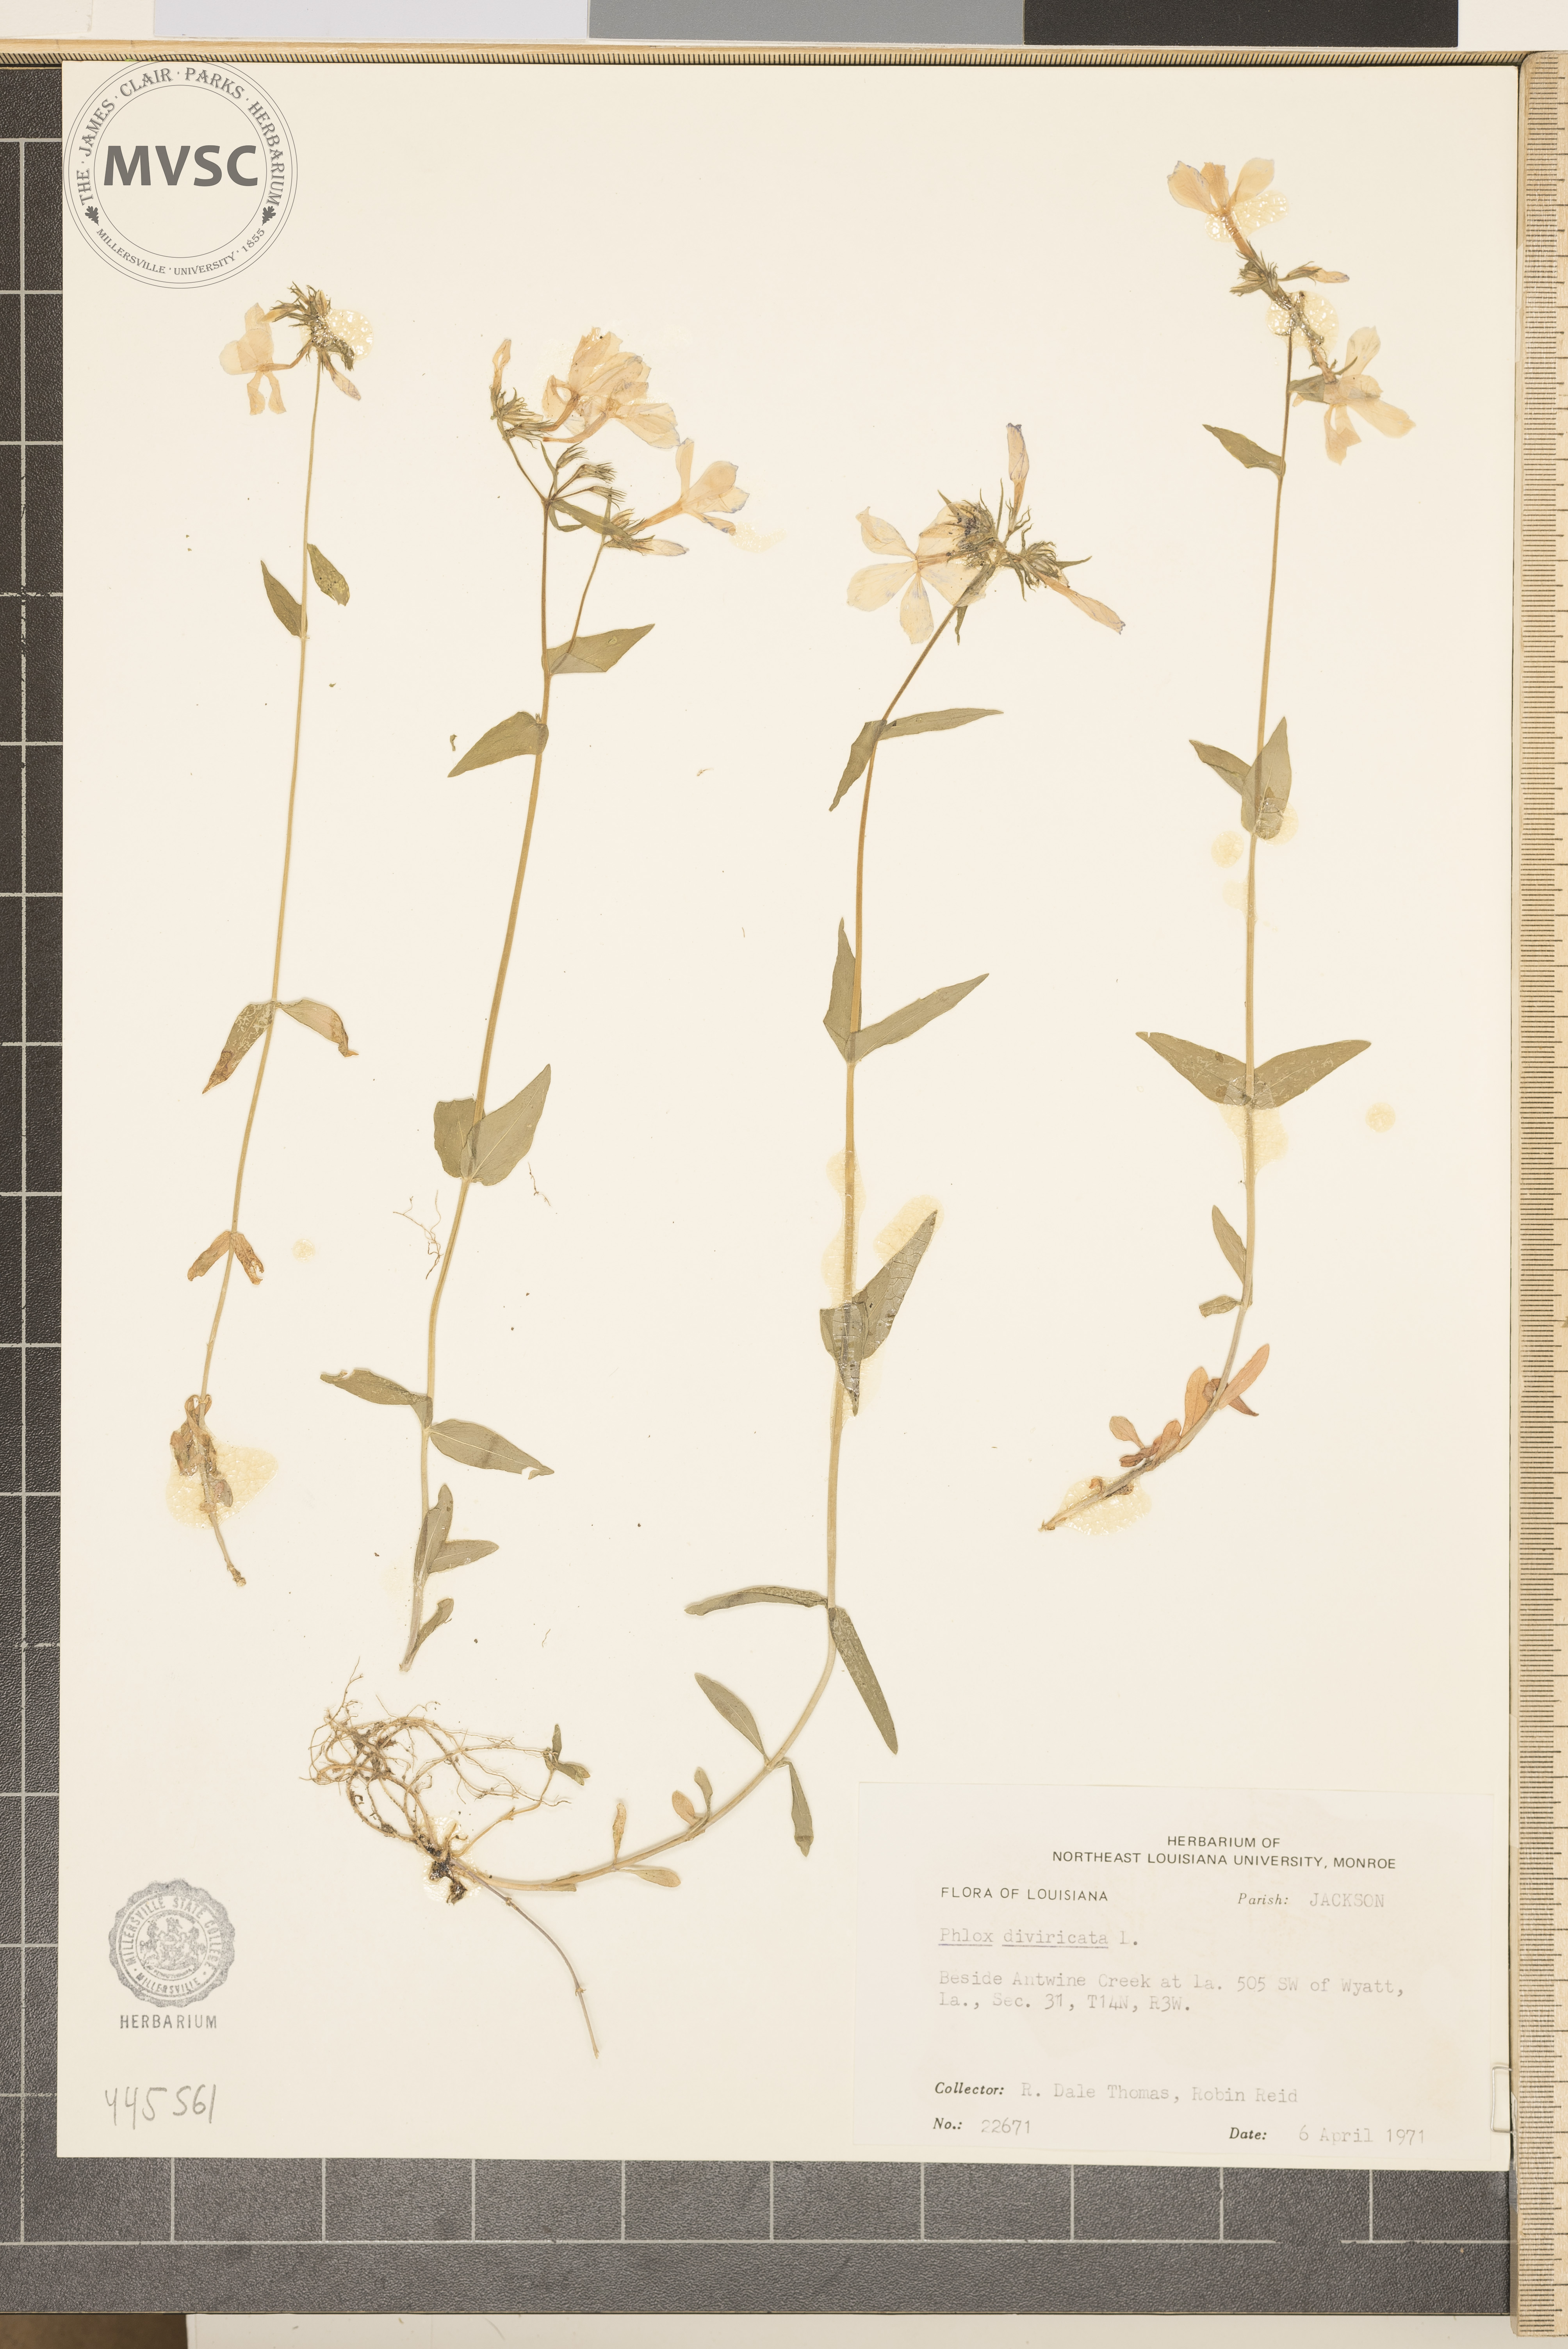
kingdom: Plantae
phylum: Tracheophyta
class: Magnoliopsida
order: Ericales
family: Polemoniaceae
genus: Phlox
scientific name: Phlox divaricata
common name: Blue phlox
